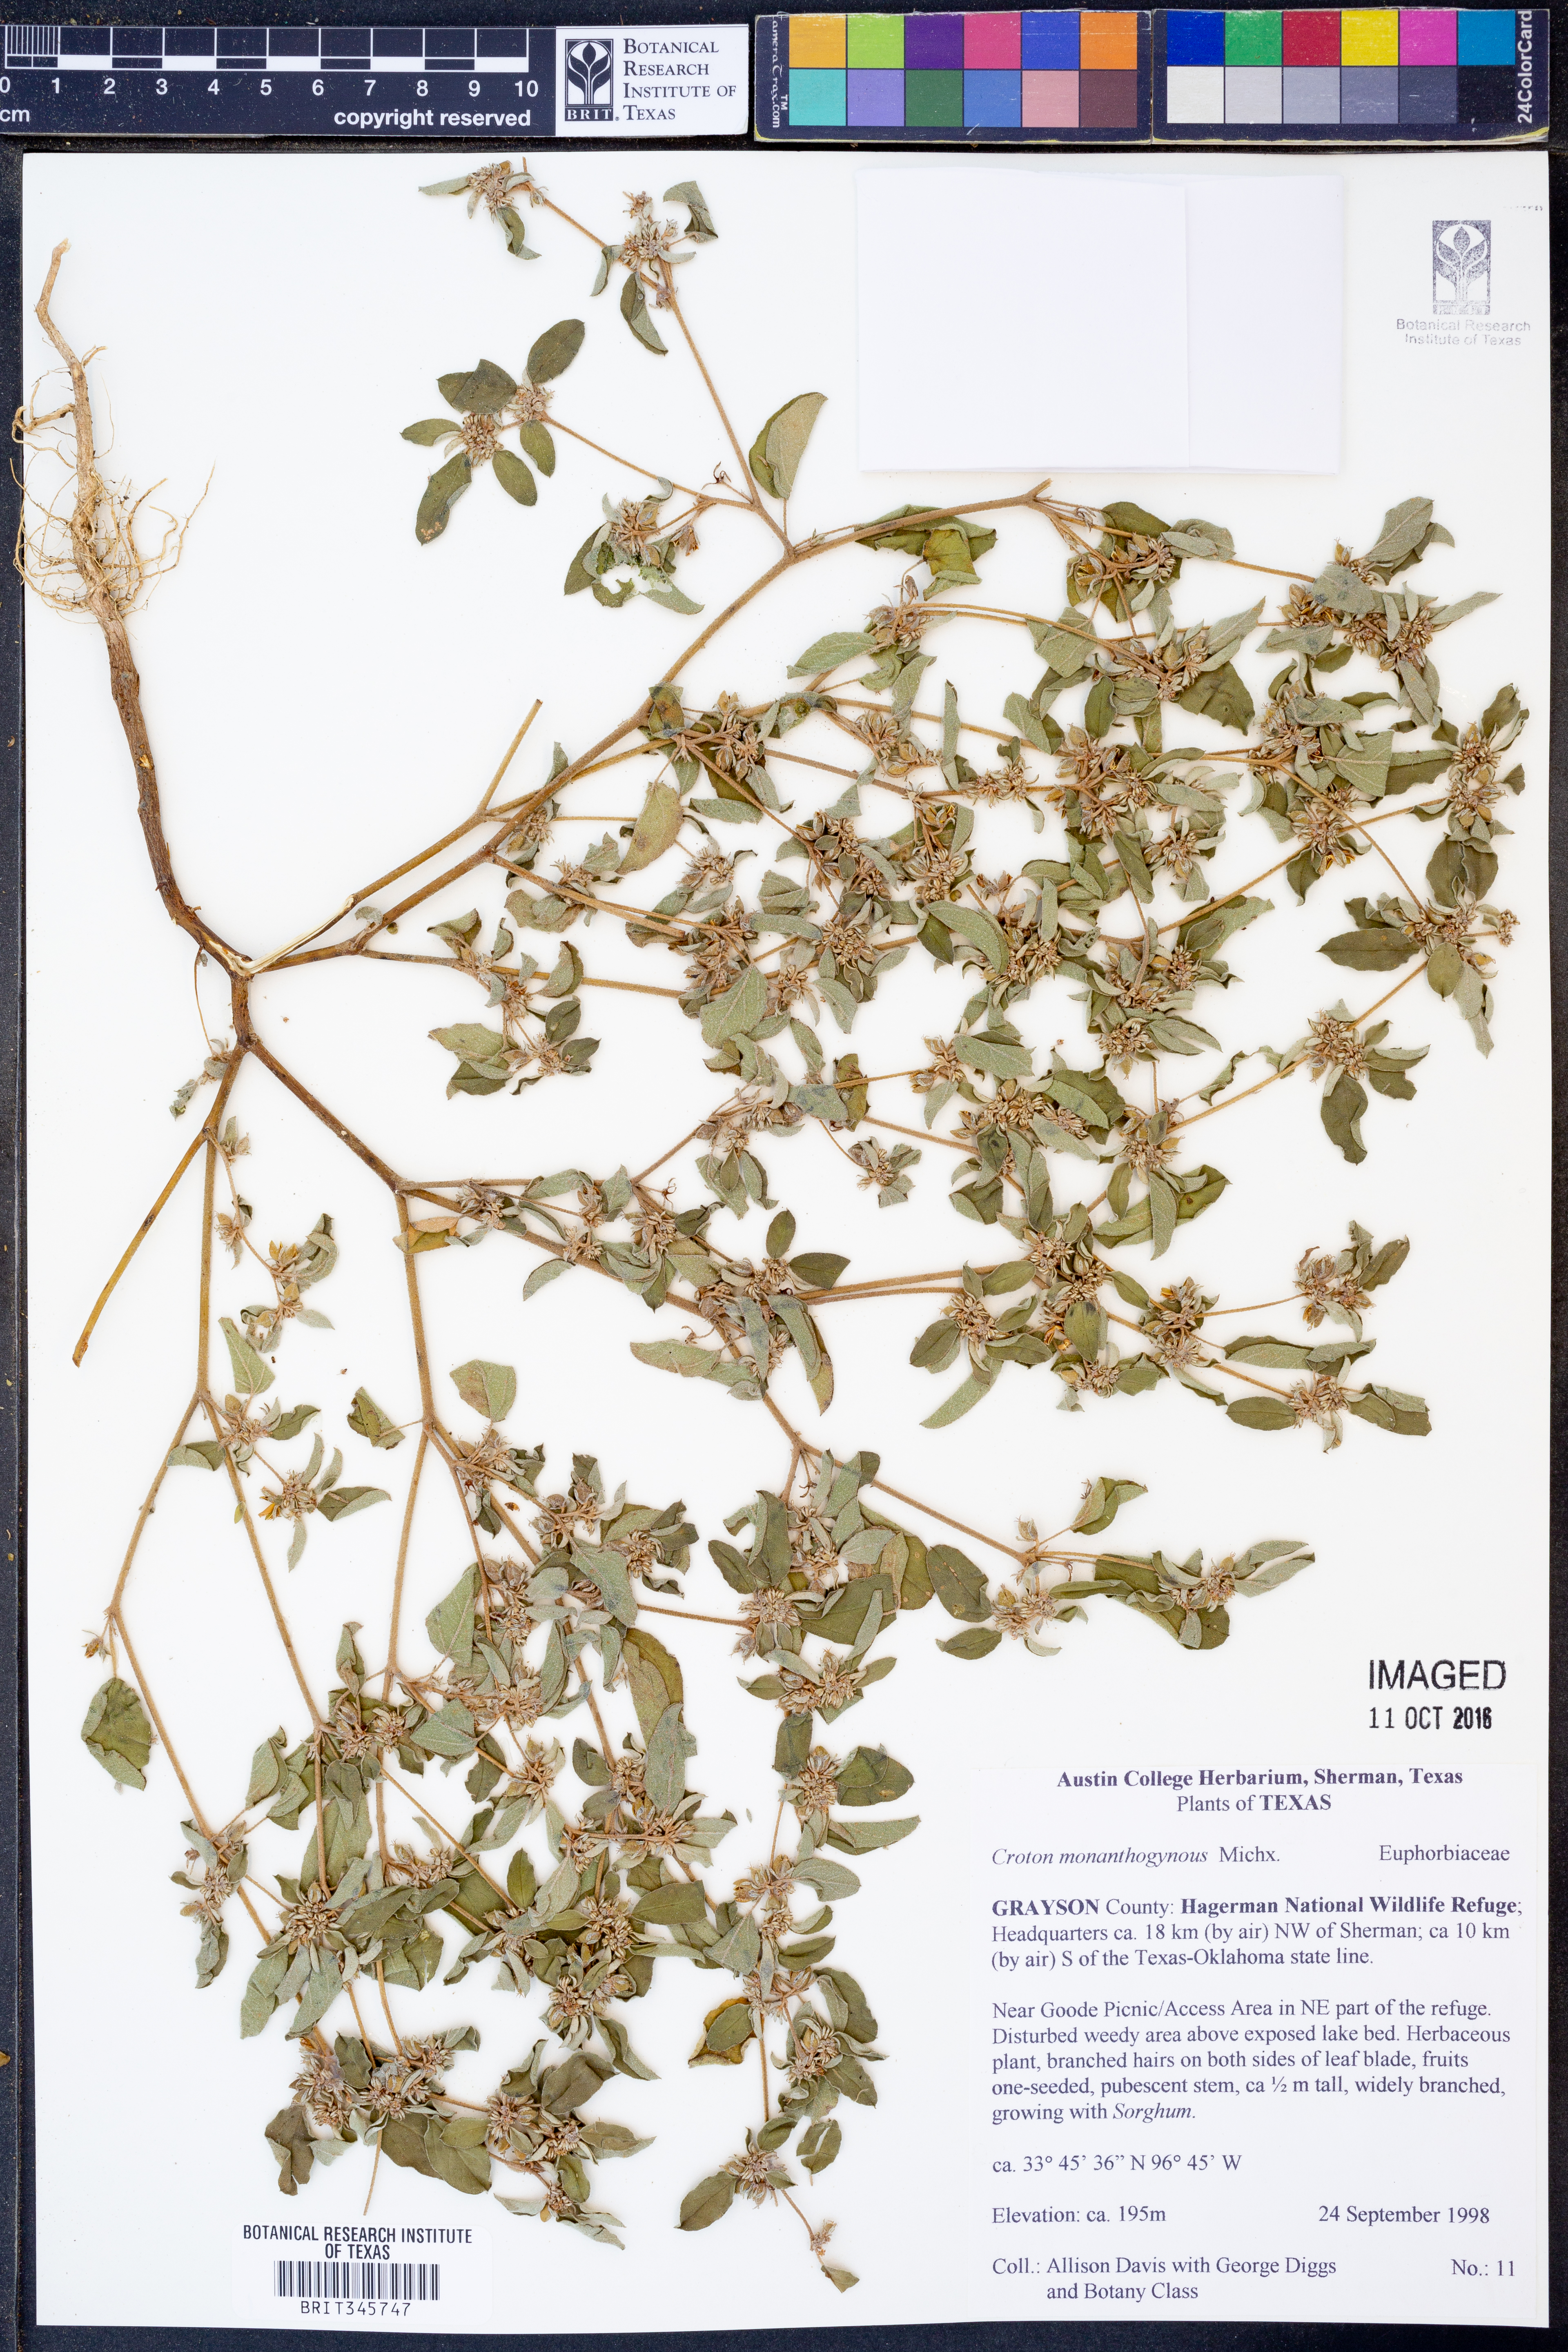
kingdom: Plantae
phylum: Tracheophyta
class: Magnoliopsida
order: Malpighiales
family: Euphorbiaceae
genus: Croton
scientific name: Croton monanthogynus
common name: One-seed croton
